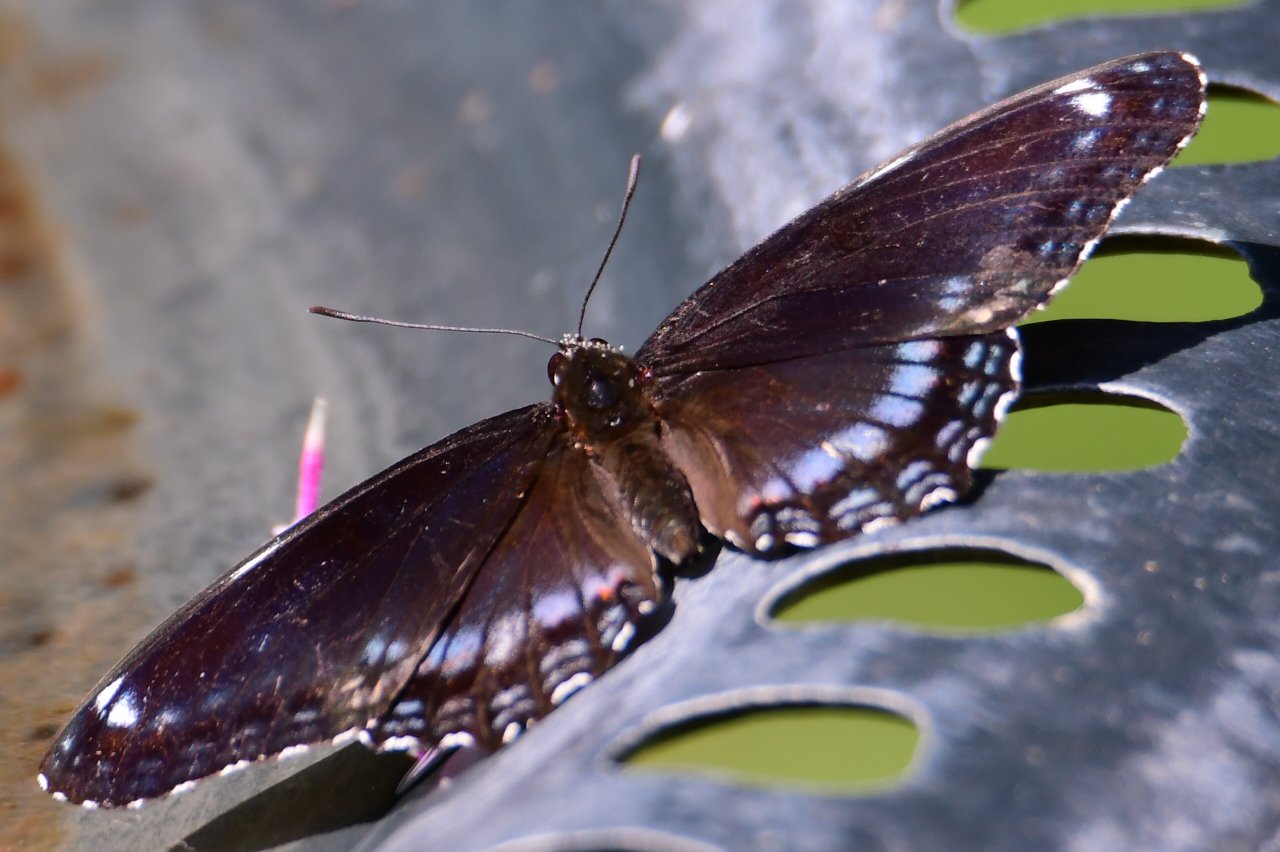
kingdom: Animalia
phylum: Arthropoda
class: Insecta
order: Lepidoptera
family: Nymphalidae
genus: Limenitis
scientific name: Limenitis astyanax
